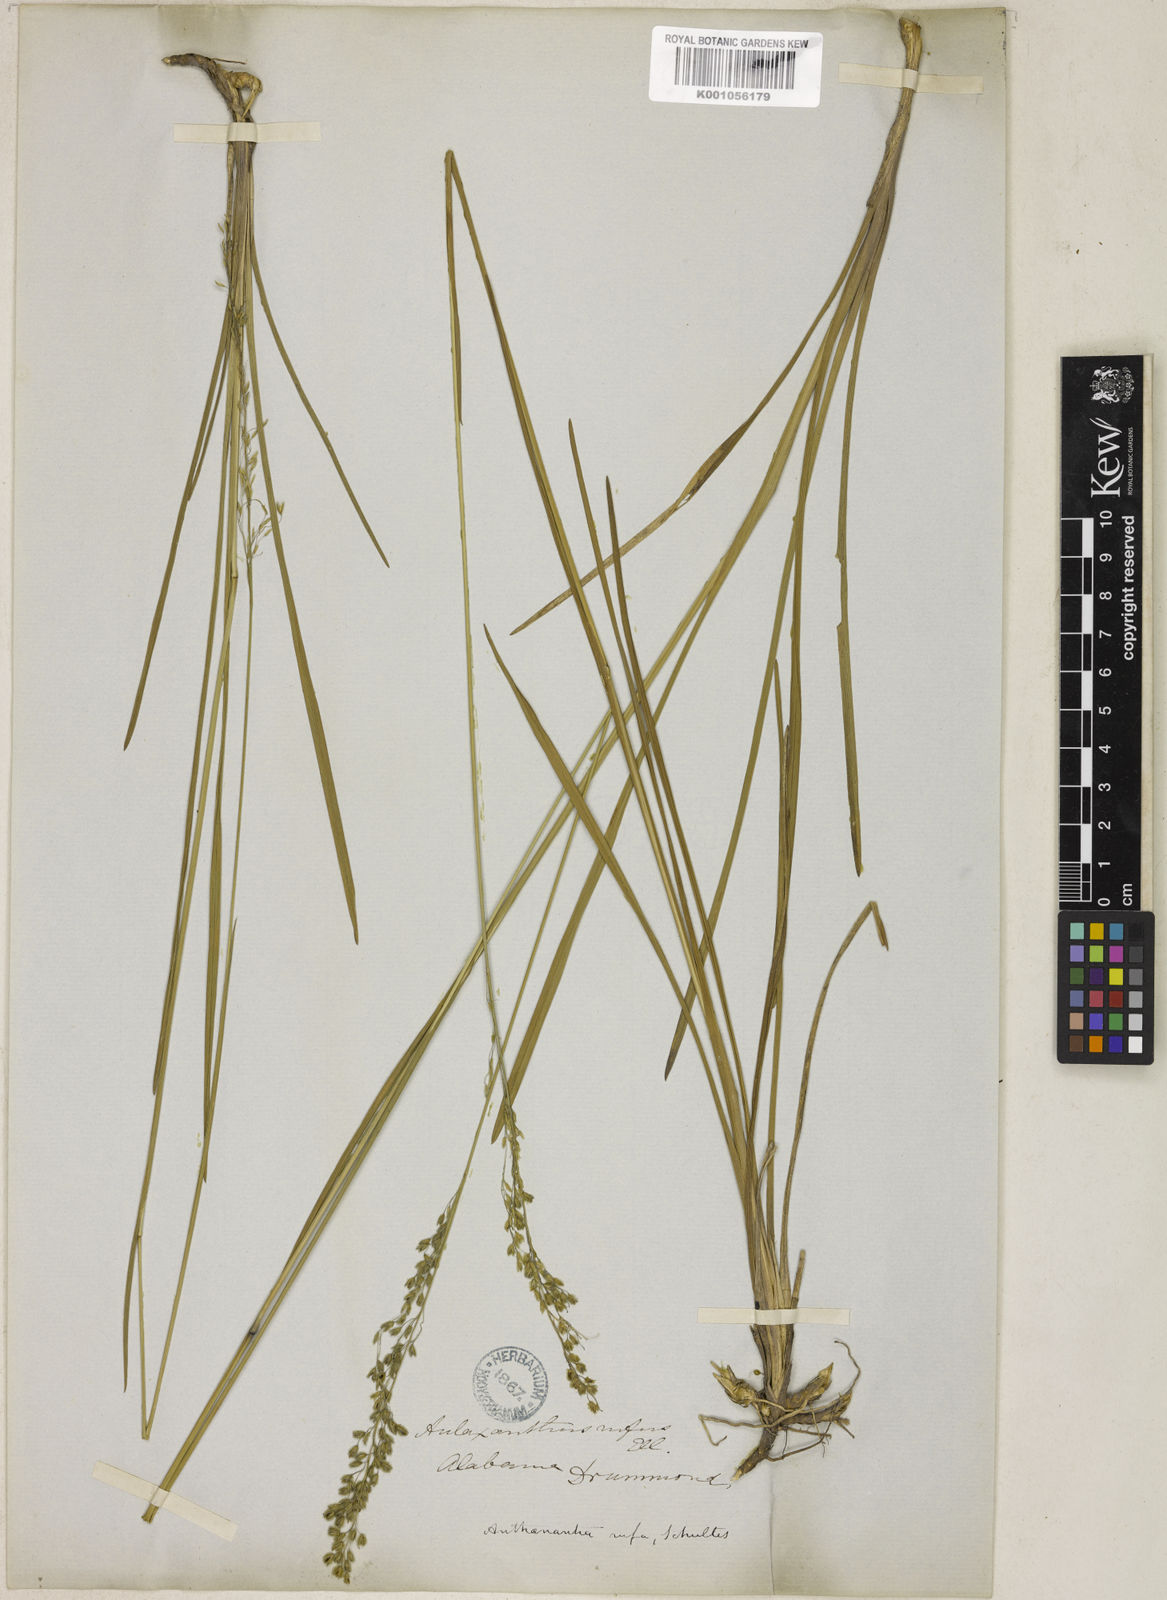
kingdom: Plantae
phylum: Tracheophyta
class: Liliopsida
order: Poales
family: Poaceae
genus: Anthenantia
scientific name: Anthenantia rufa
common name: Purple silkyscale
